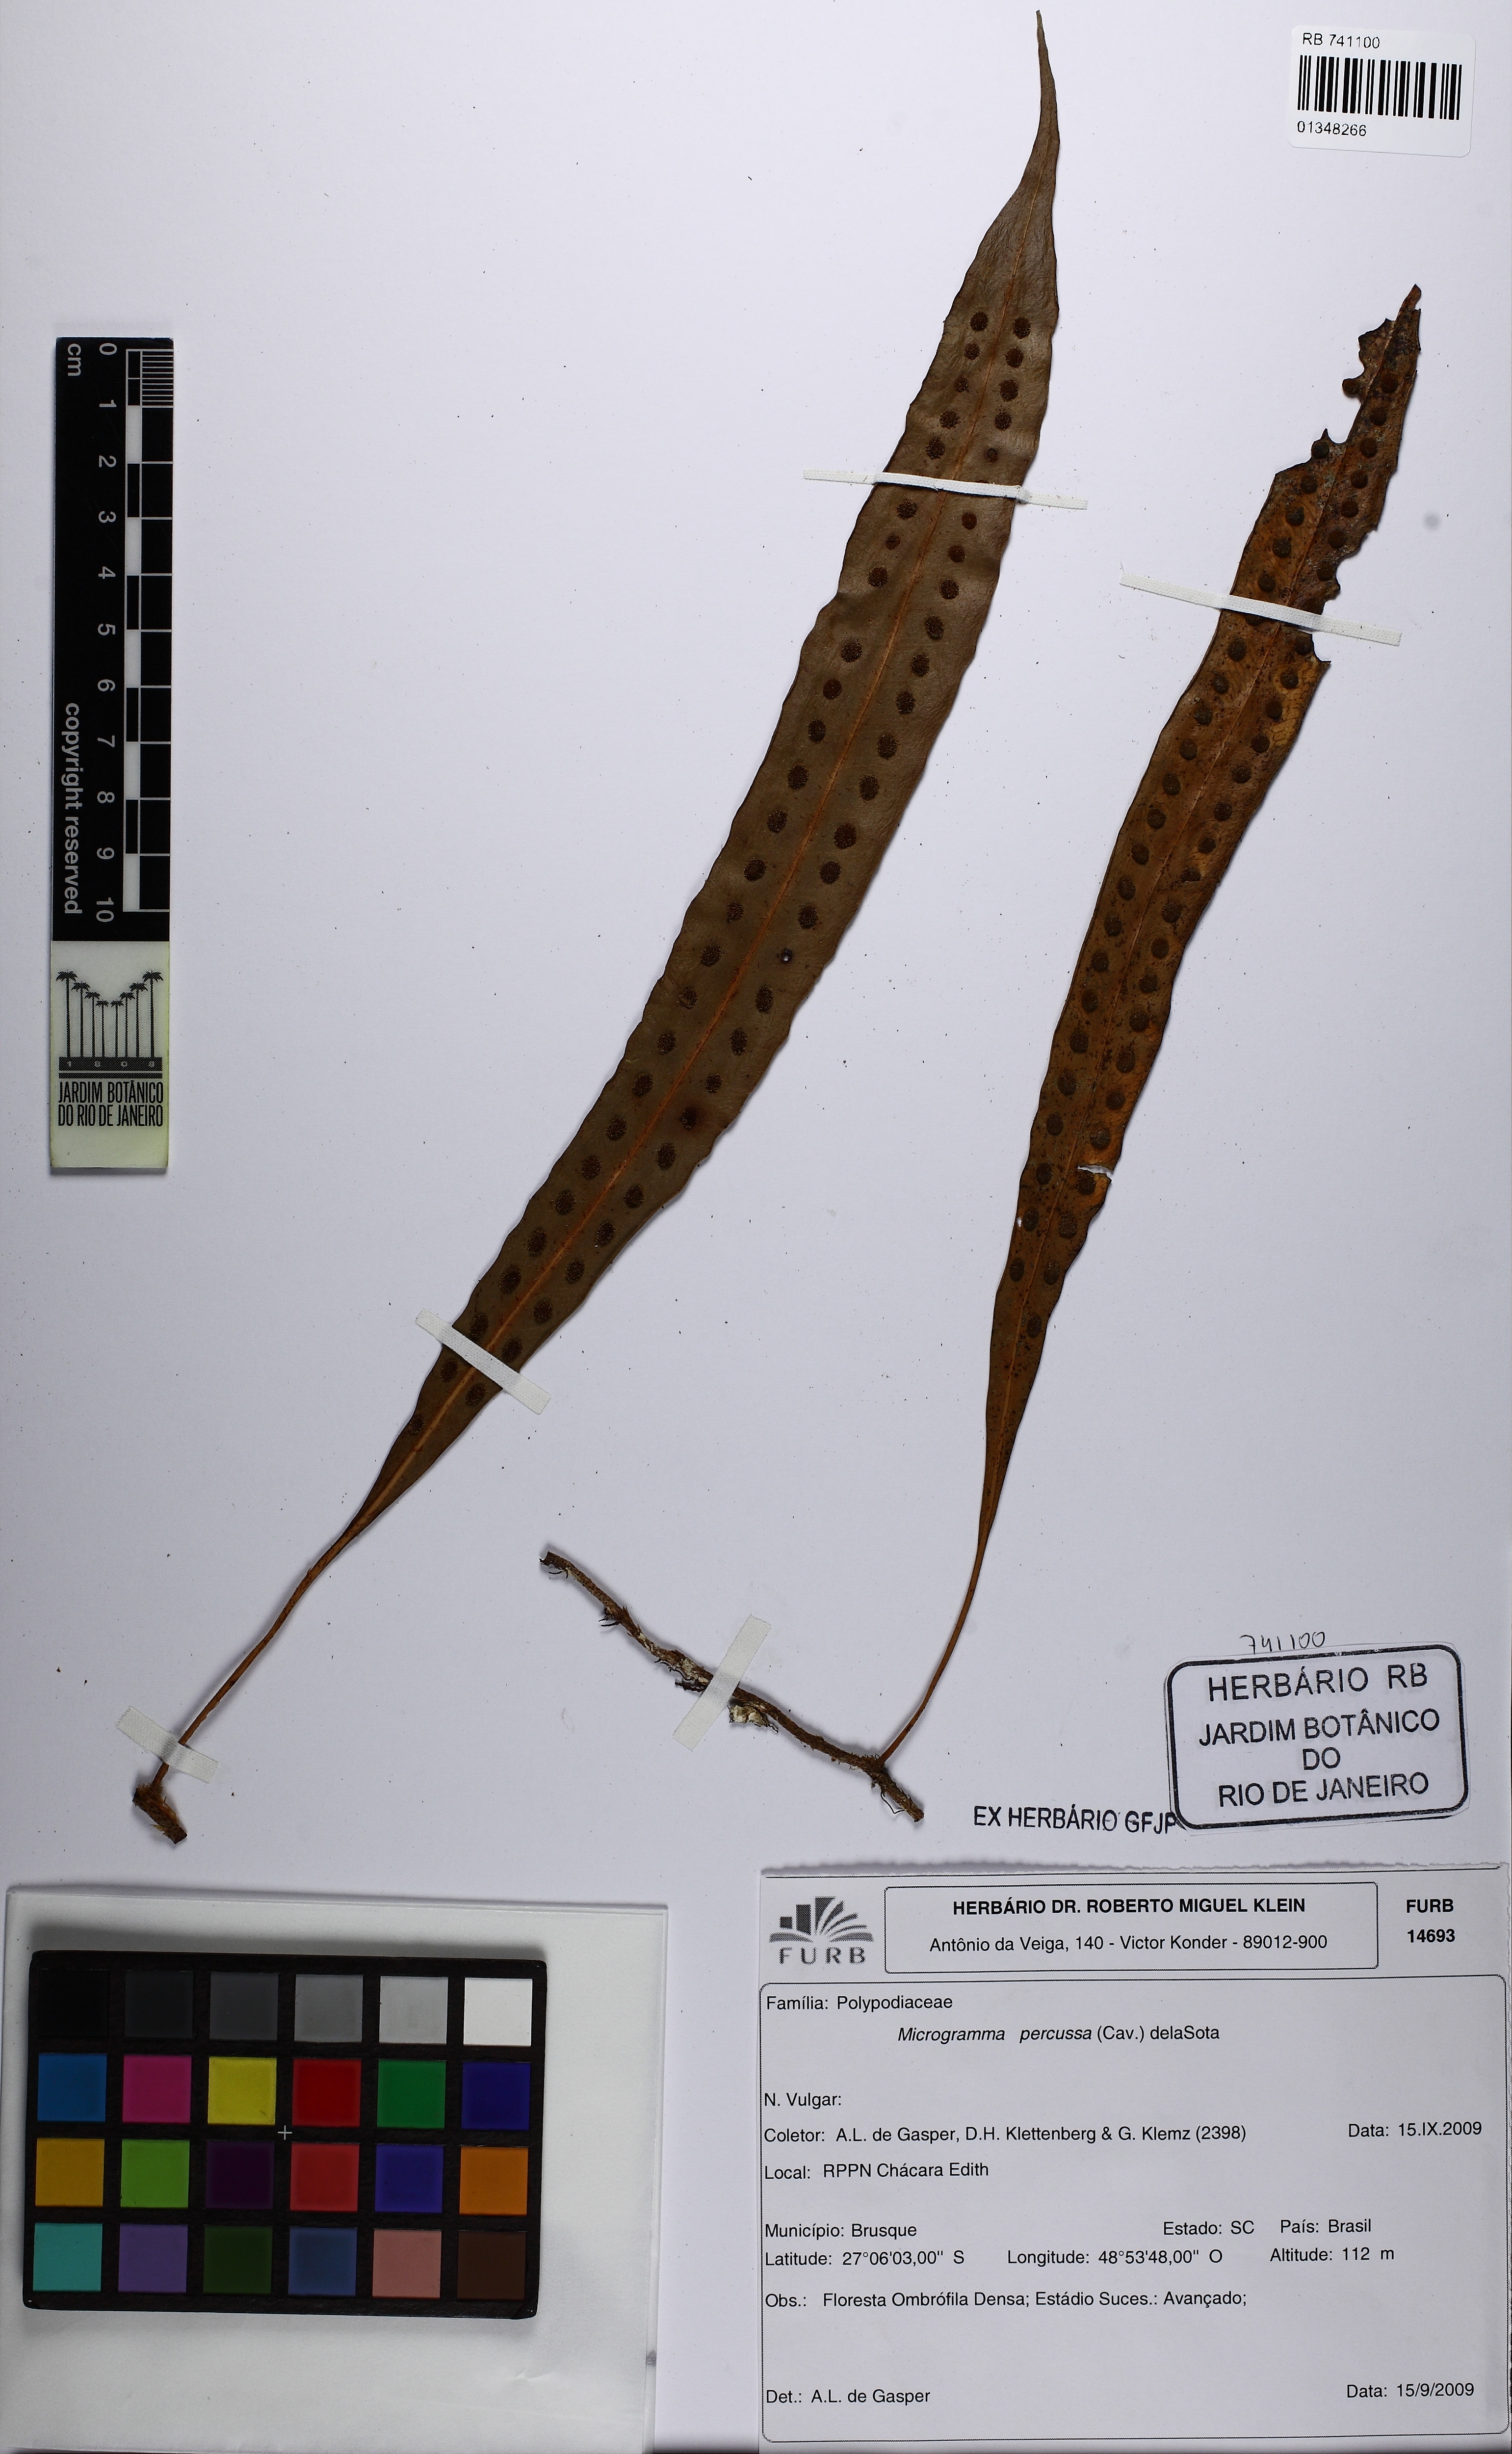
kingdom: Plantae
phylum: Tracheophyta
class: Polypodiopsida
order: Polypodiales
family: Polypodiaceae
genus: Microgramma
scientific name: Microgramma percussa
